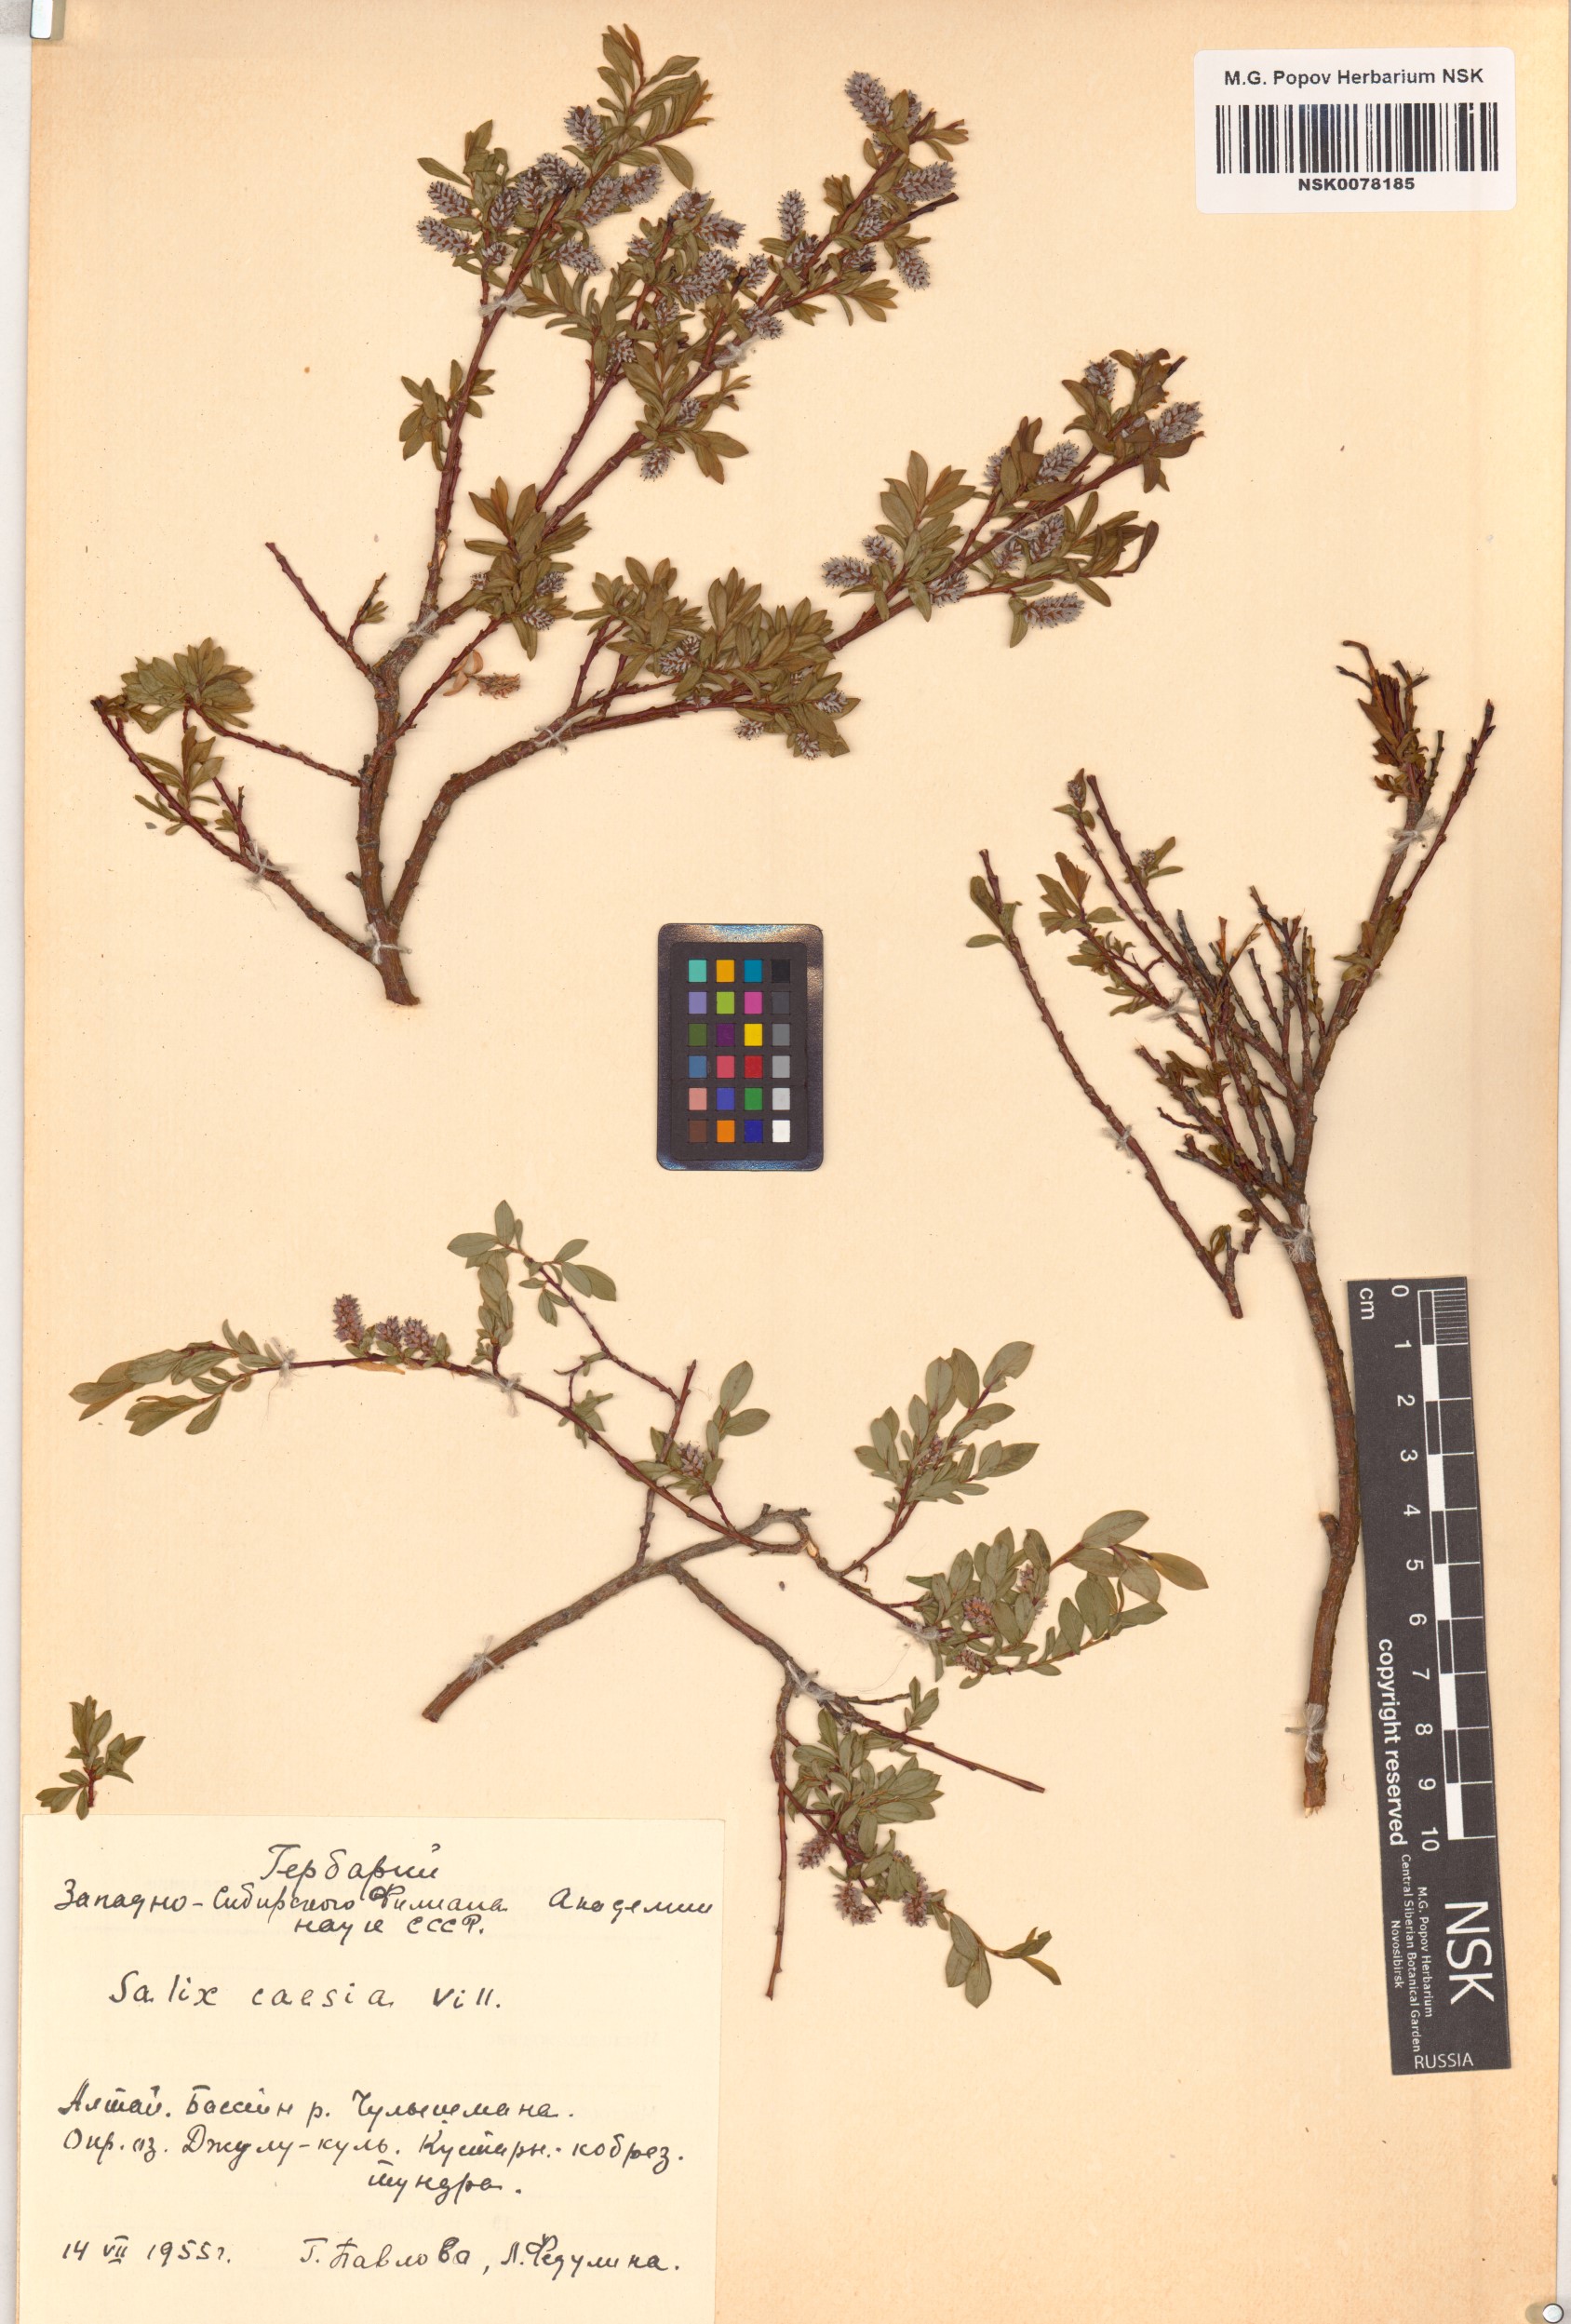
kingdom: Plantae
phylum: Tracheophyta
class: Magnoliopsida
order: Malpighiales
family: Salicaceae
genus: Salix
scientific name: Salix caesia
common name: Blue willow
